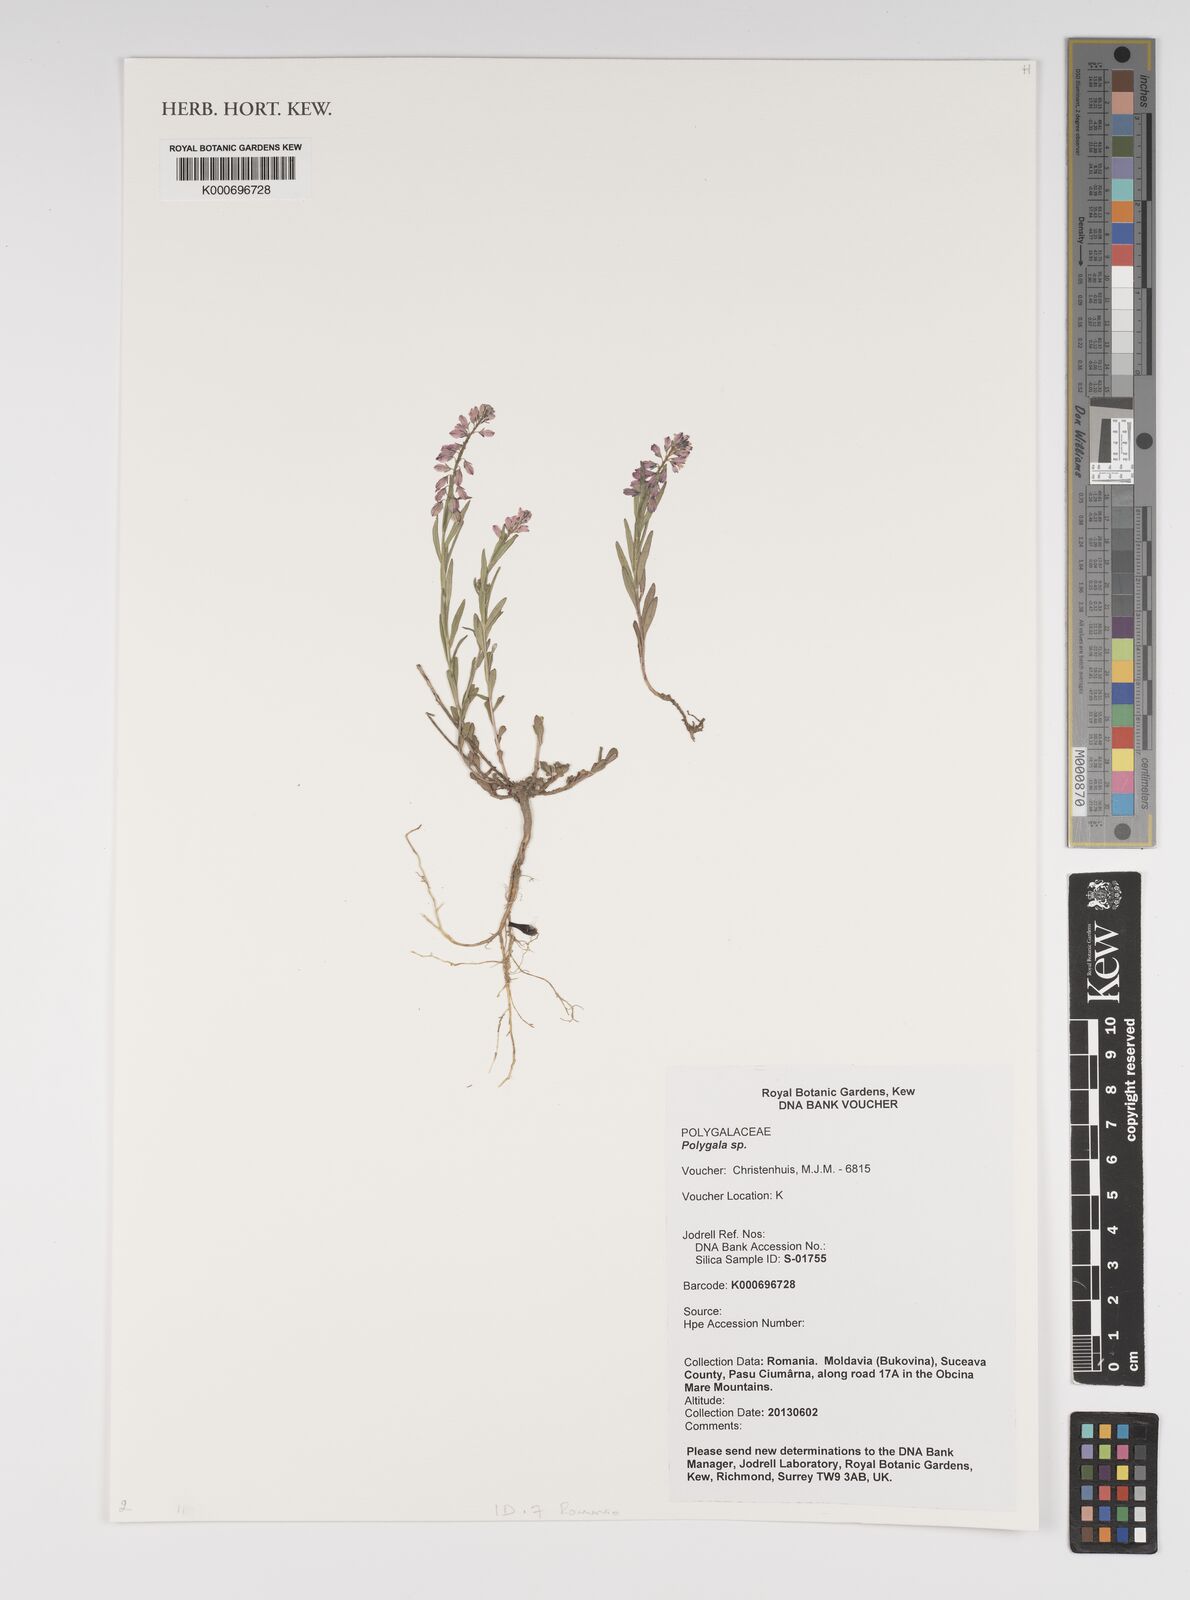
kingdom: Plantae
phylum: Tracheophyta
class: Magnoliopsida
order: Fabales
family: Polygalaceae
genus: Polygala
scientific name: Polygala
